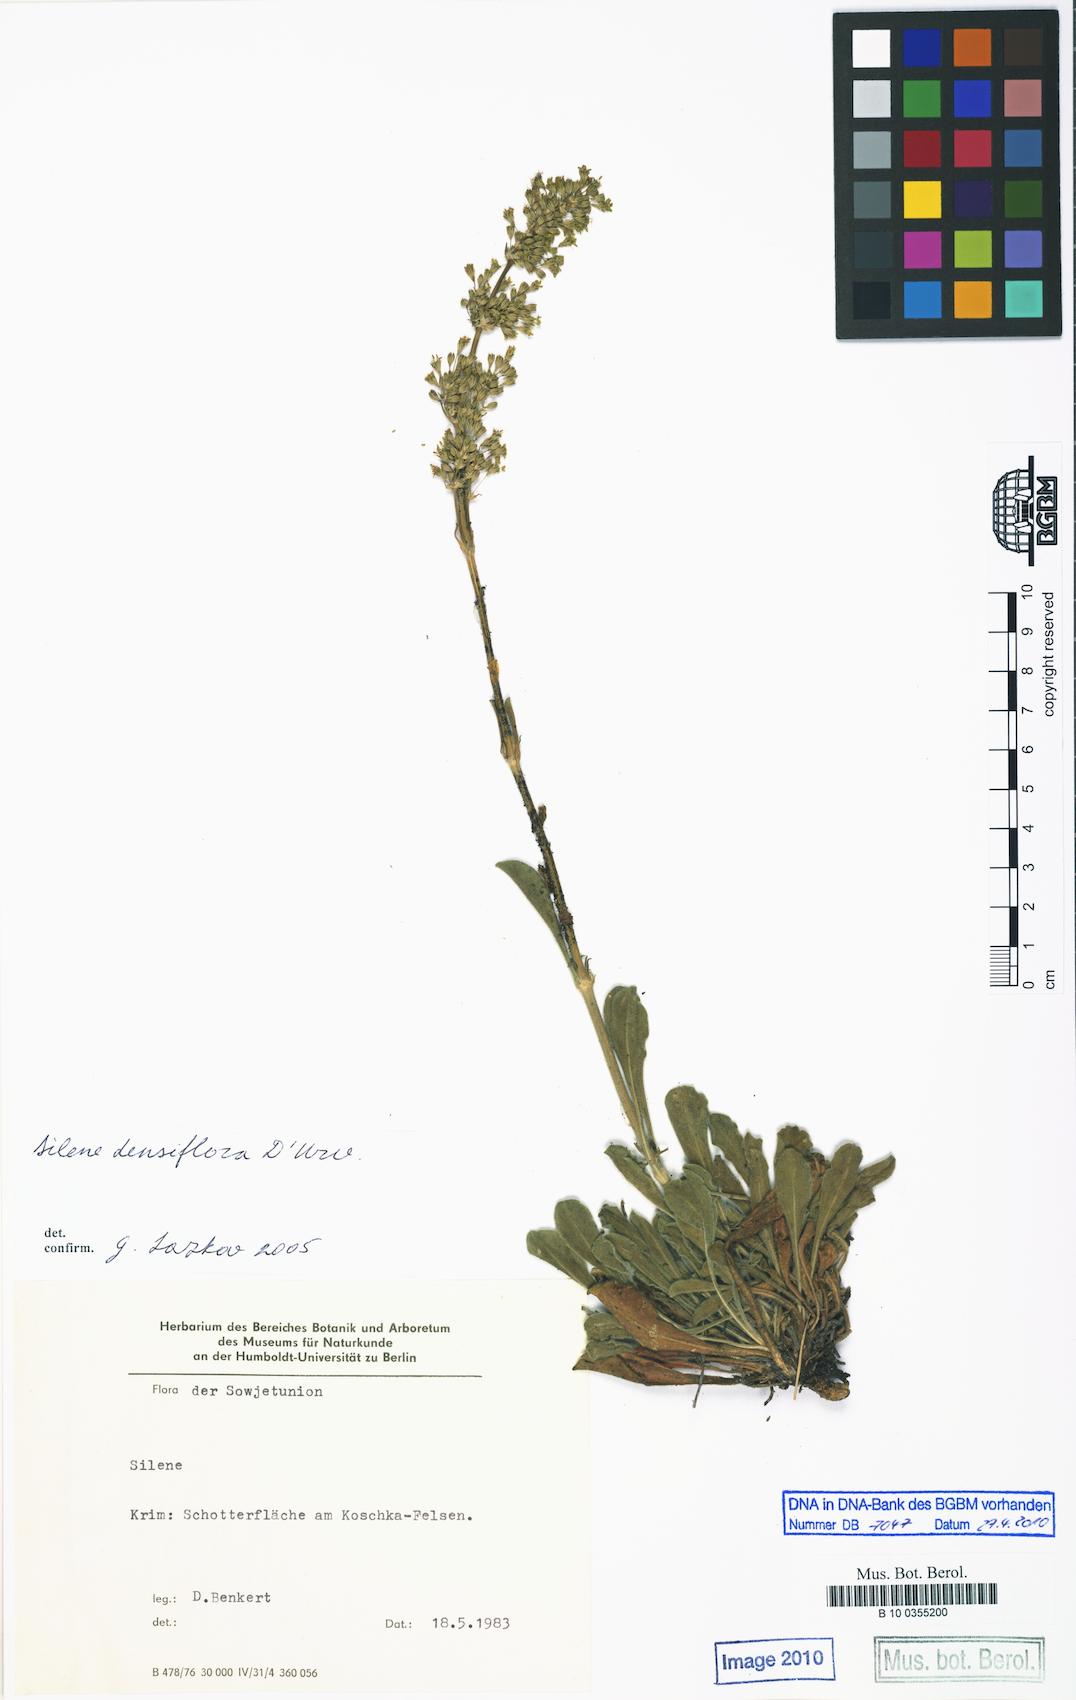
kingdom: Plantae
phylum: Tracheophyta
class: Magnoliopsida
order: Caryophyllales
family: Caryophyllaceae
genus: Silene
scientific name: Silene densiflora
